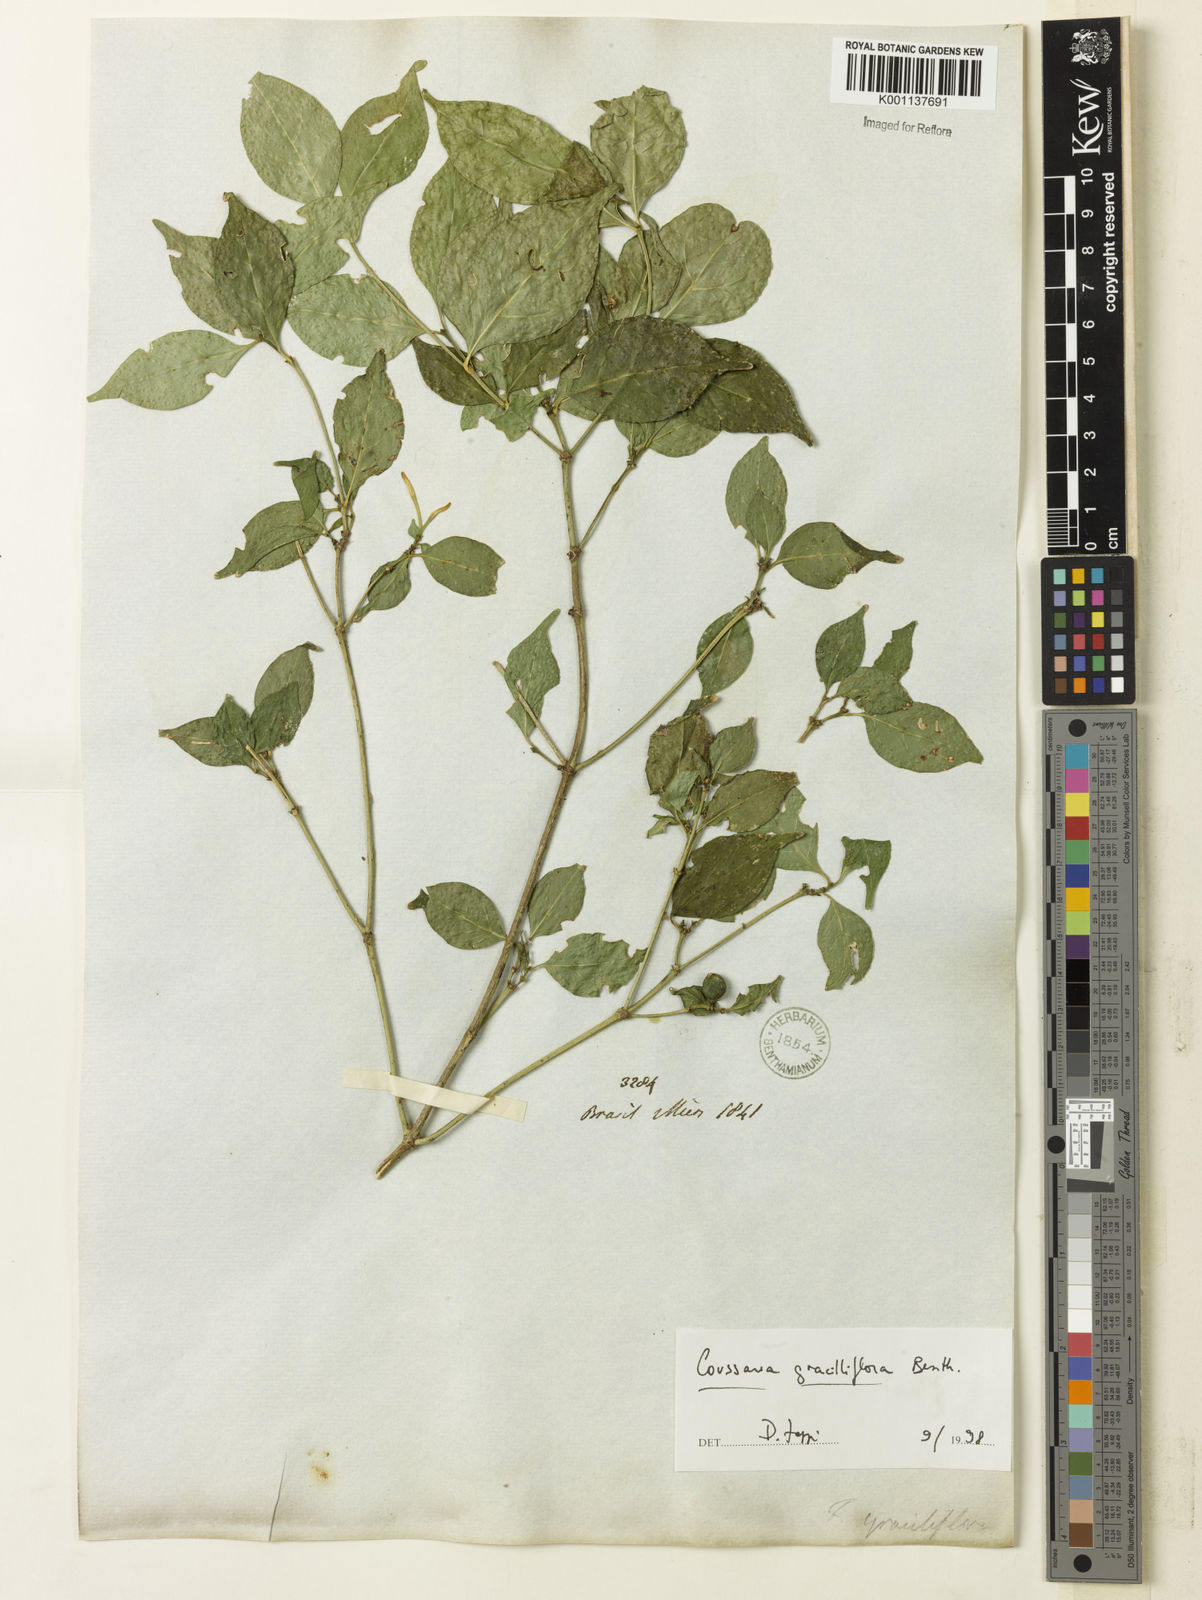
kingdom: Plantae
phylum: Tracheophyta
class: Magnoliopsida
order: Gentianales
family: Rubiaceae
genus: Coussarea
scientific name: Coussarea
